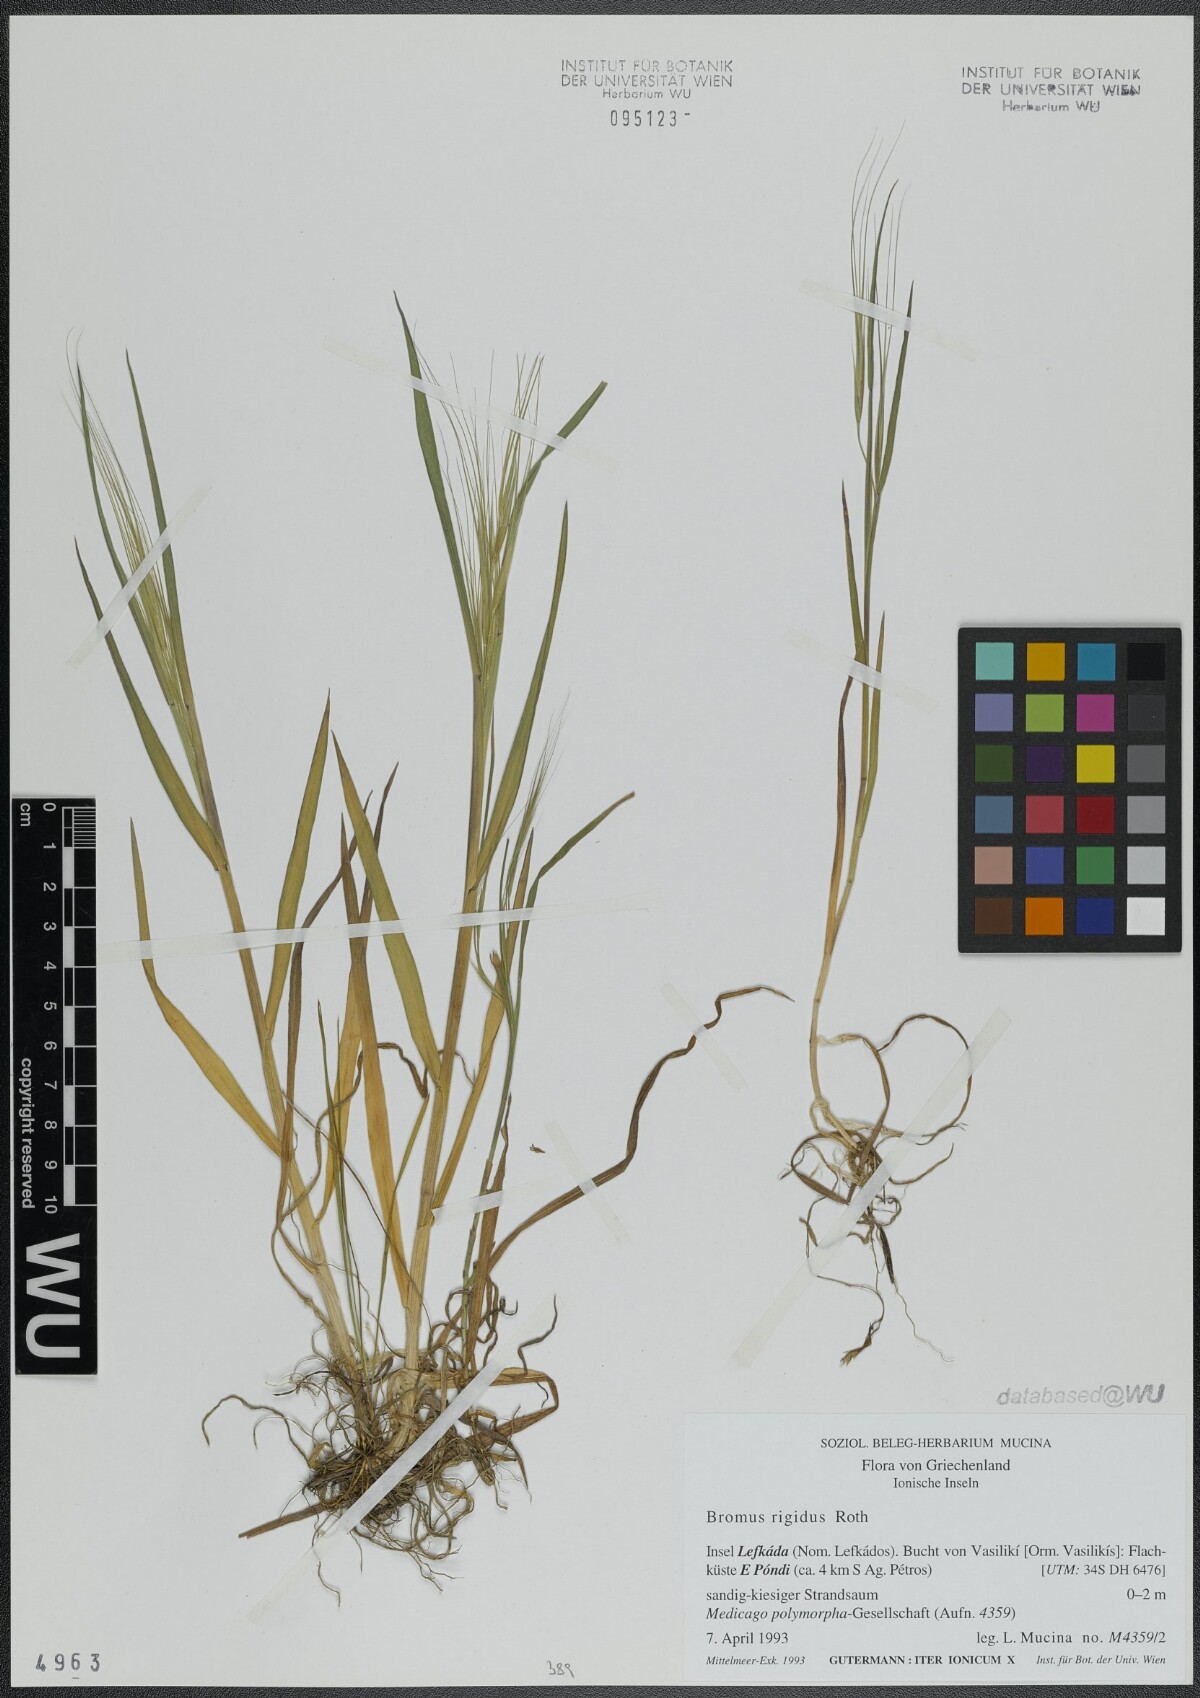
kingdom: Plantae
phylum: Tracheophyta
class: Liliopsida
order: Poales
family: Poaceae
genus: Bromus
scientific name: Bromus rigidus
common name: Ripgut brome
